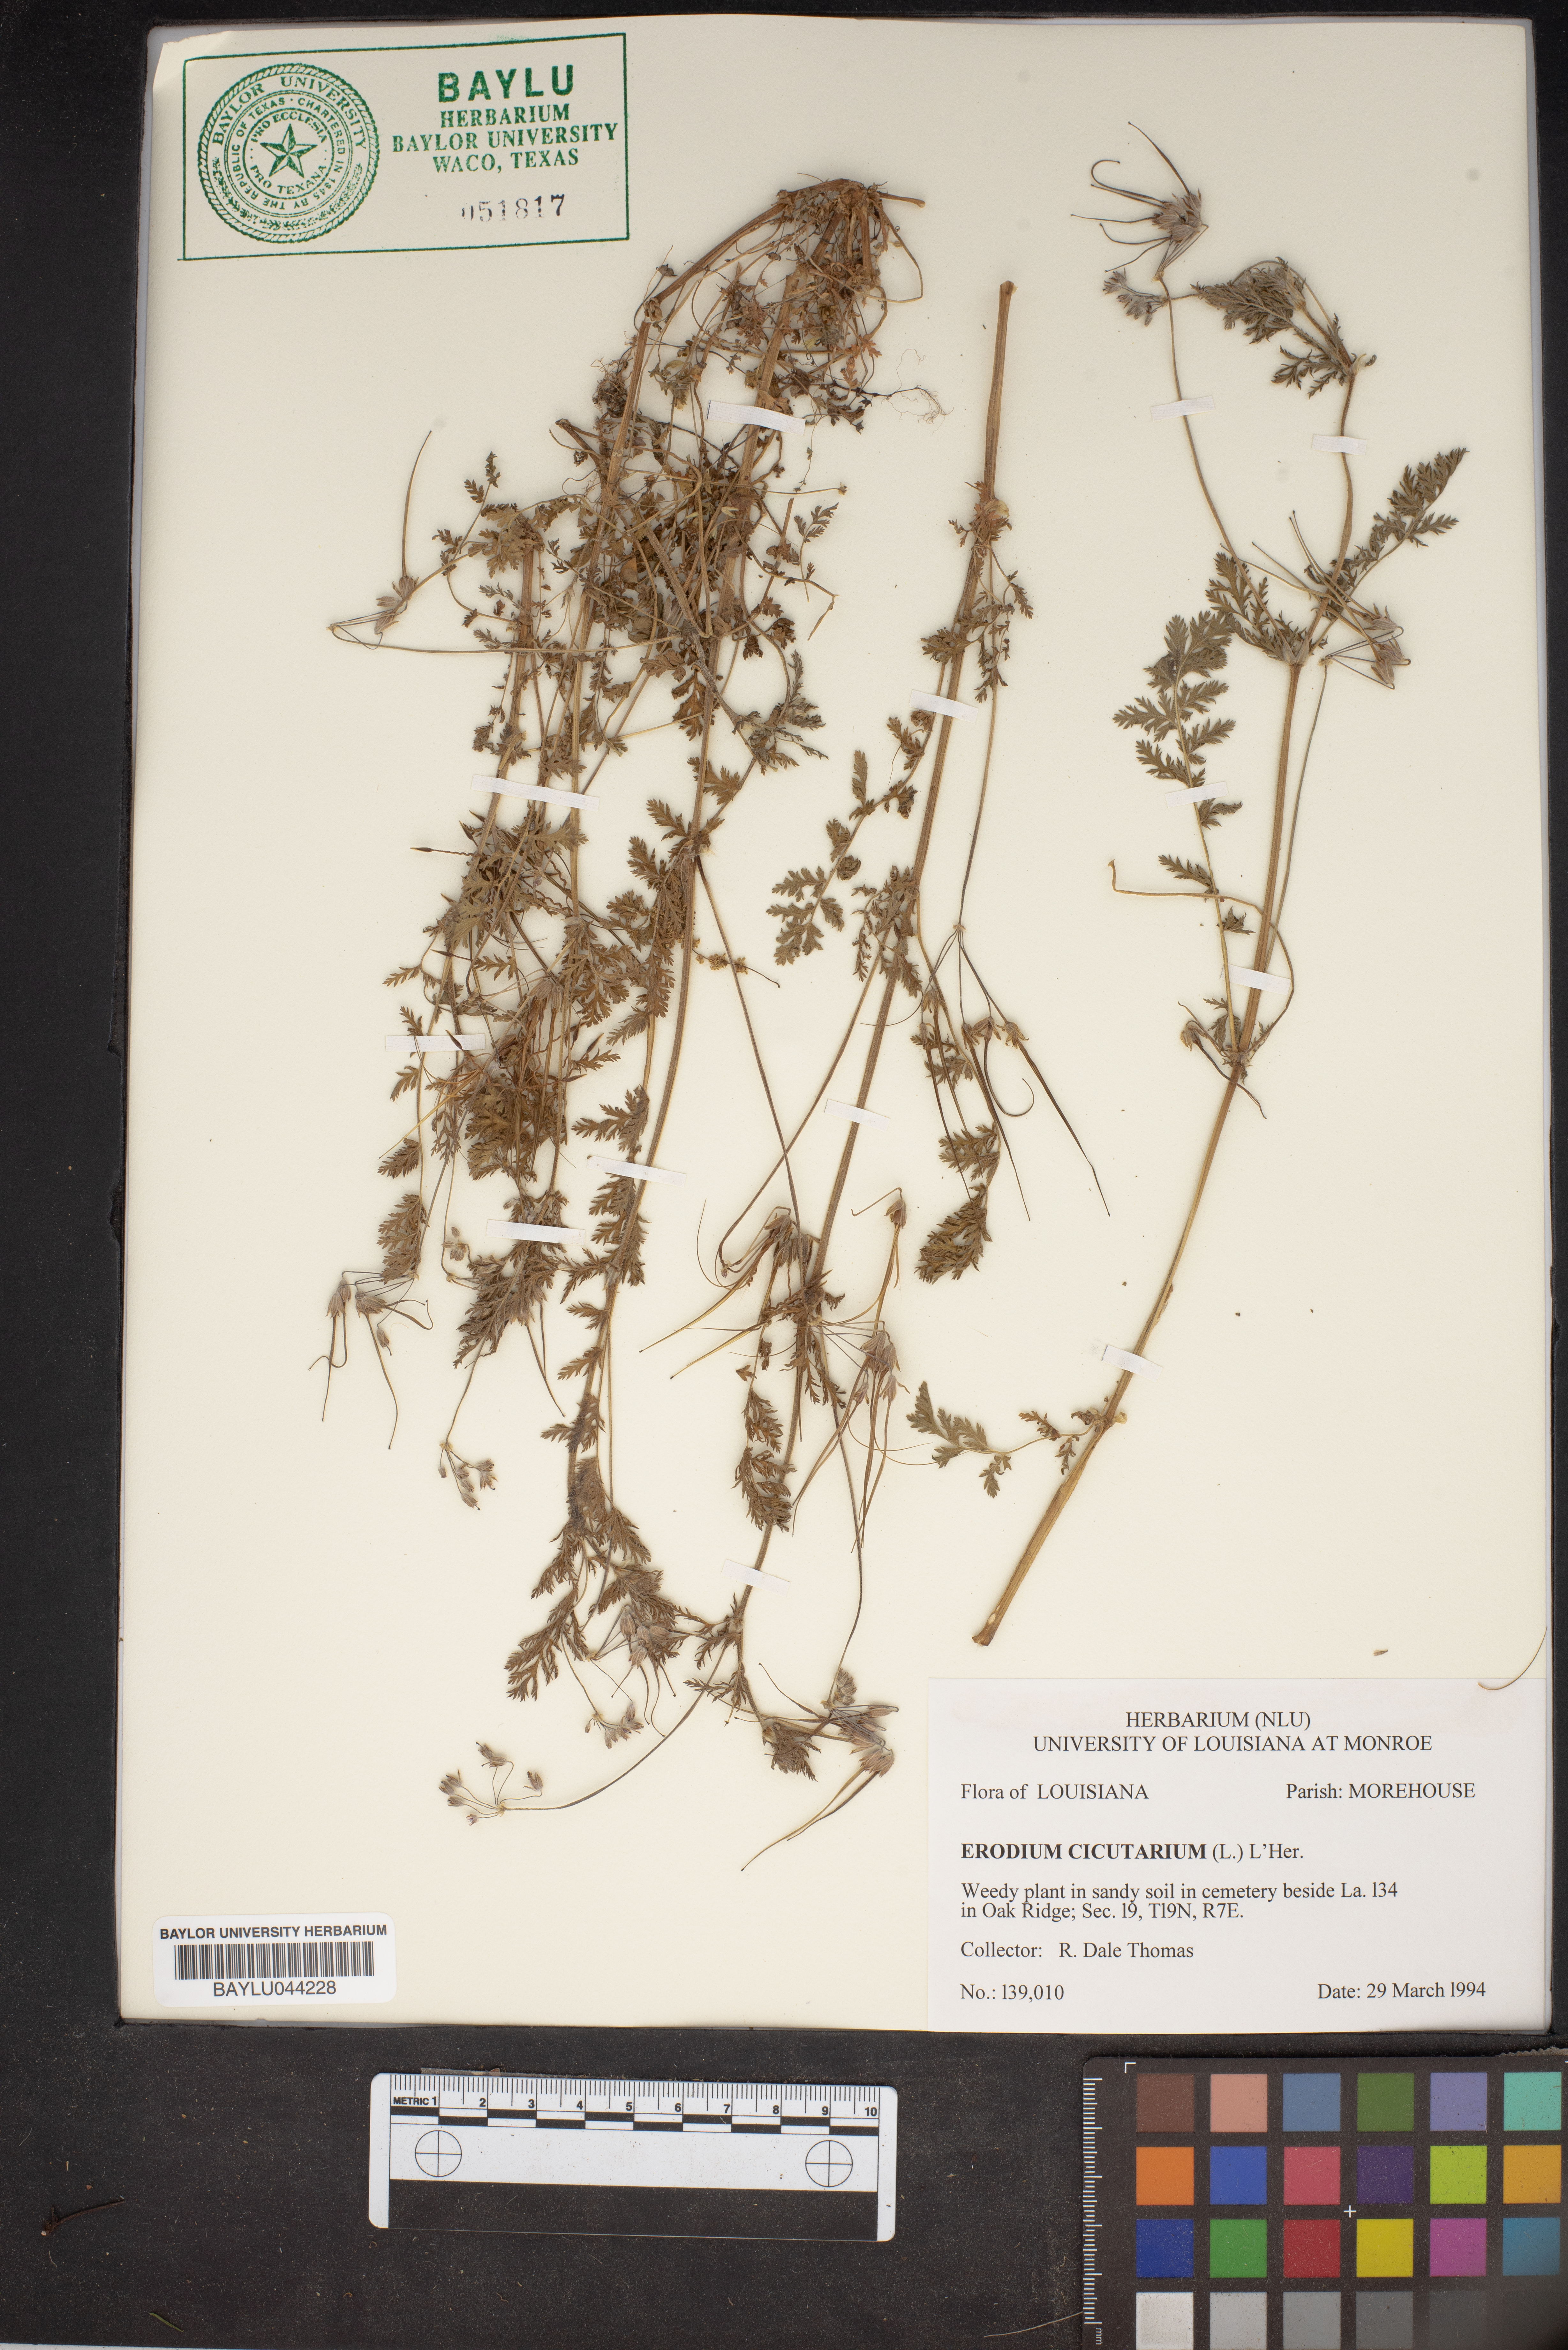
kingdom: Plantae
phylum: Tracheophyta
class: Magnoliopsida
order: Geraniales
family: Geraniaceae
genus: Erodium
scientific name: Erodium cicutarium
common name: Common stork's-bill
